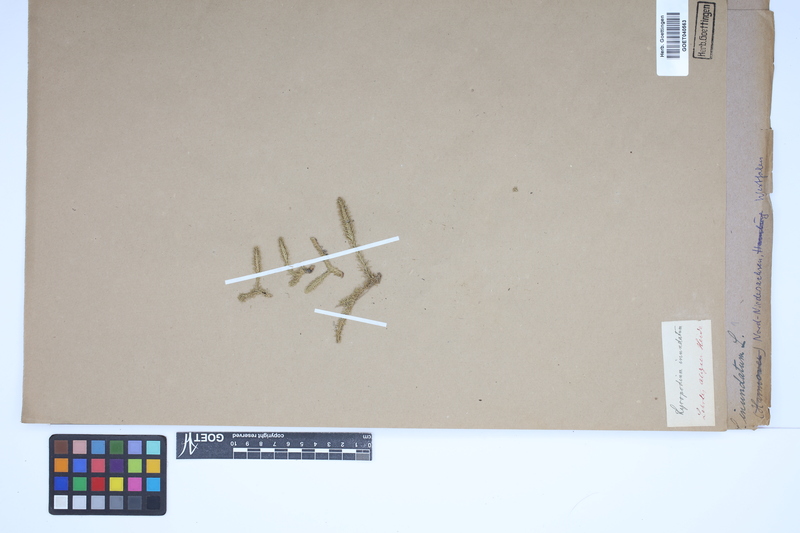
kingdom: Plantae
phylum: Tracheophyta
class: Lycopodiopsida
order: Lycopodiales
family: Lycopodiaceae
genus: Lycopodiella
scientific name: Lycopodiella inundata
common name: Marsh clubmoss
